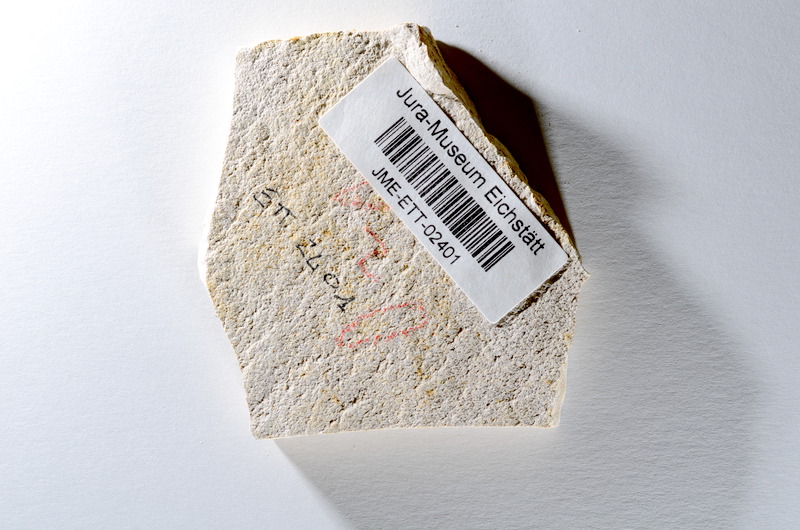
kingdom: Animalia
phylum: Chordata
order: Salmoniformes
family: Orthogonikleithridae
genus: Orthogonikleithrus
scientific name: Orthogonikleithrus hoelli
